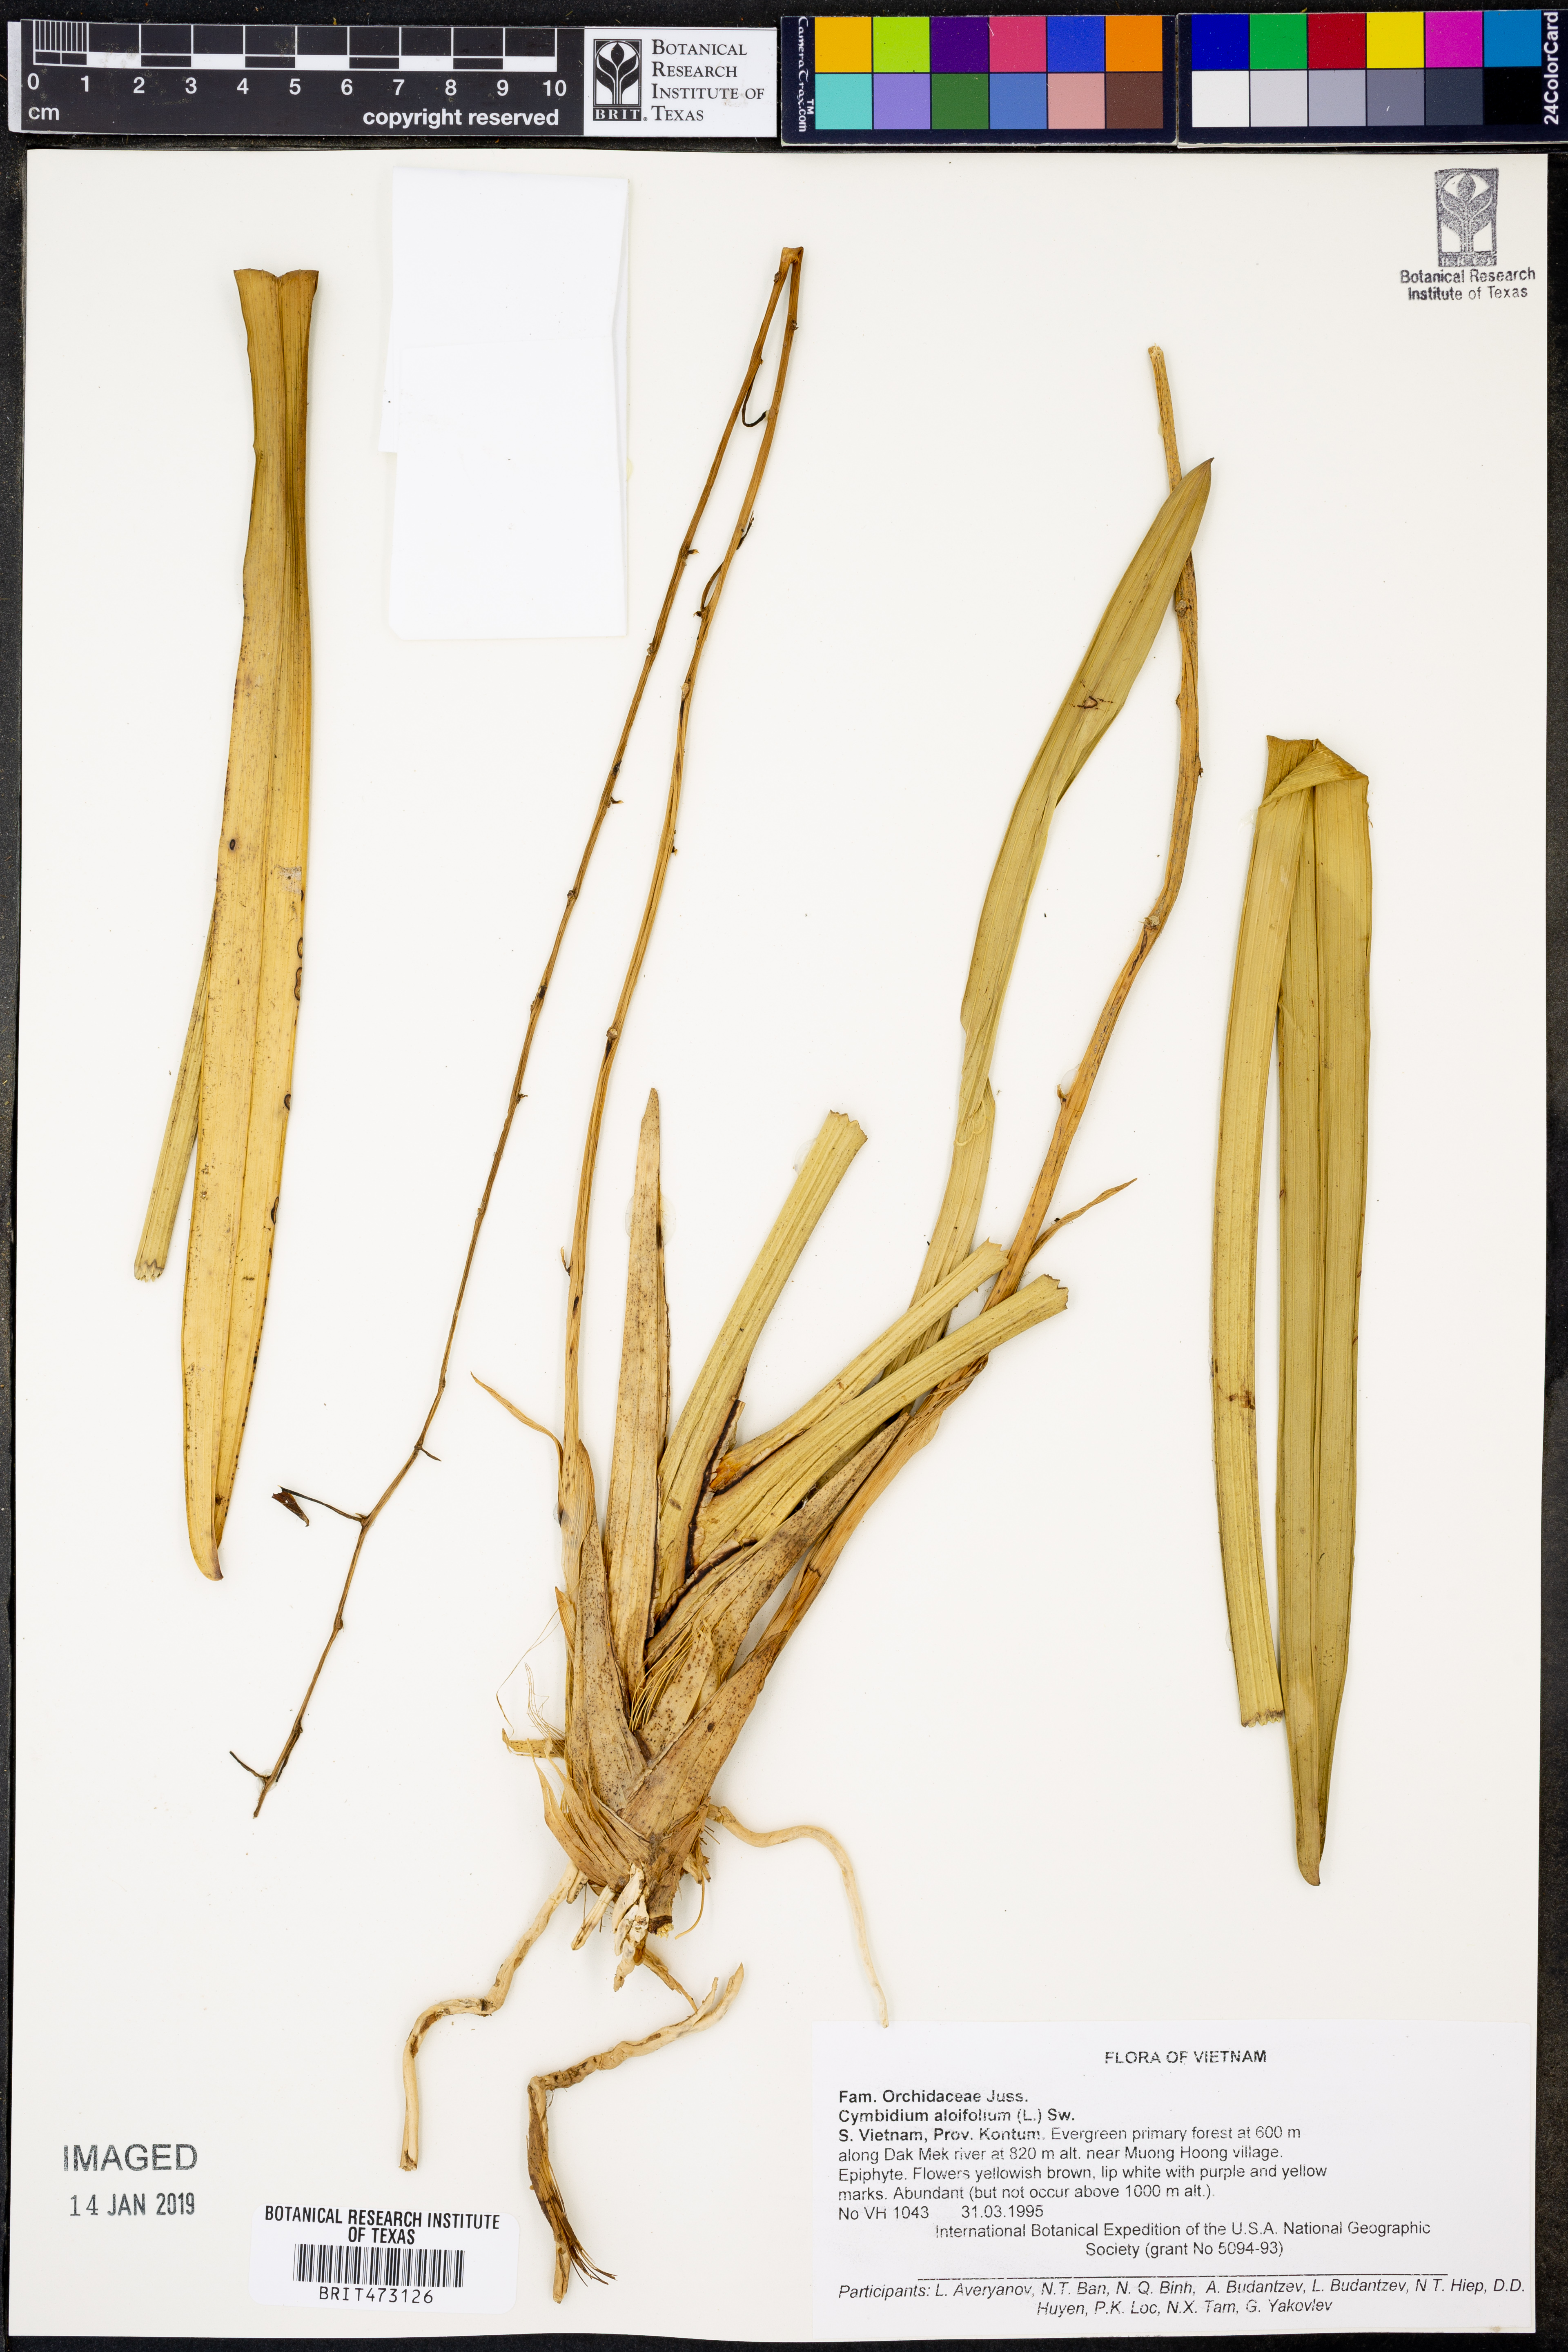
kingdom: Plantae
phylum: Tracheophyta
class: Liliopsida
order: Asparagales
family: Orchidaceae
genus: Cymbidium
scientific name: Cymbidium aloifolium
